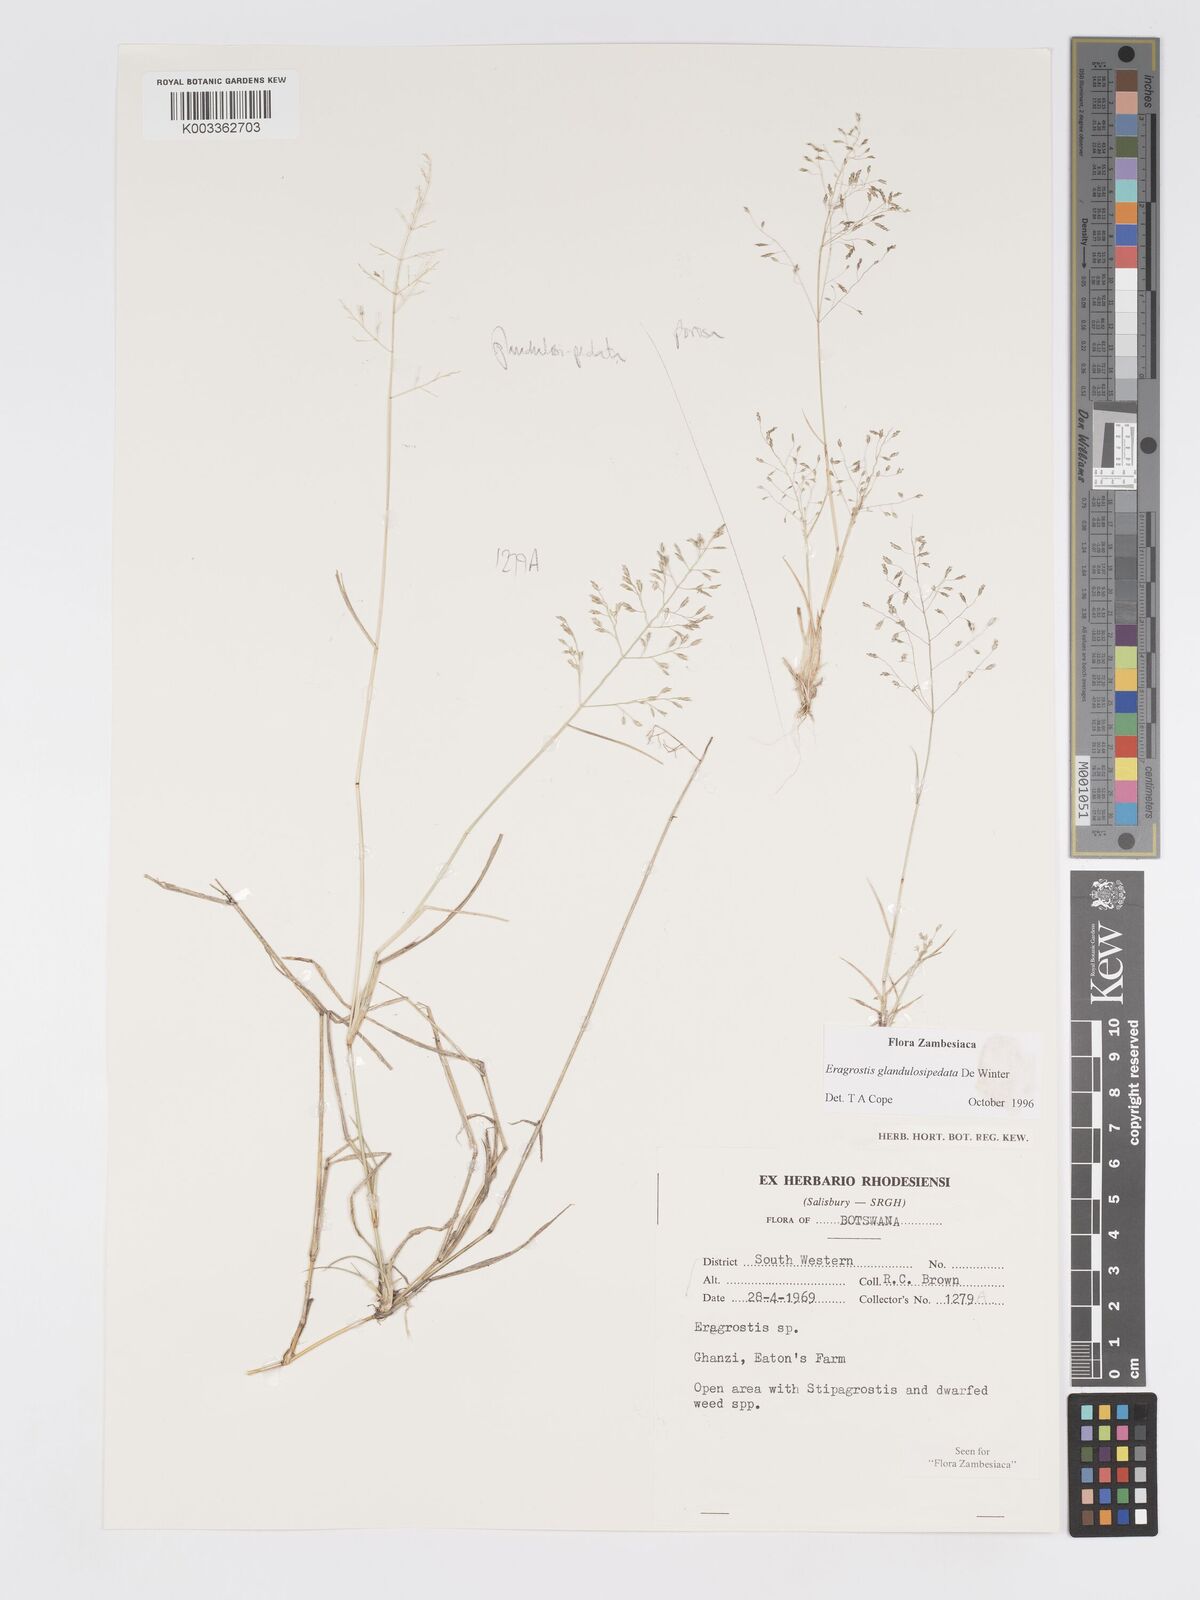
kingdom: Plantae
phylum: Tracheophyta
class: Liliopsida
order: Poales
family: Poaceae
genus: Eragrostis
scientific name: Eragrostis glandulosipedata
